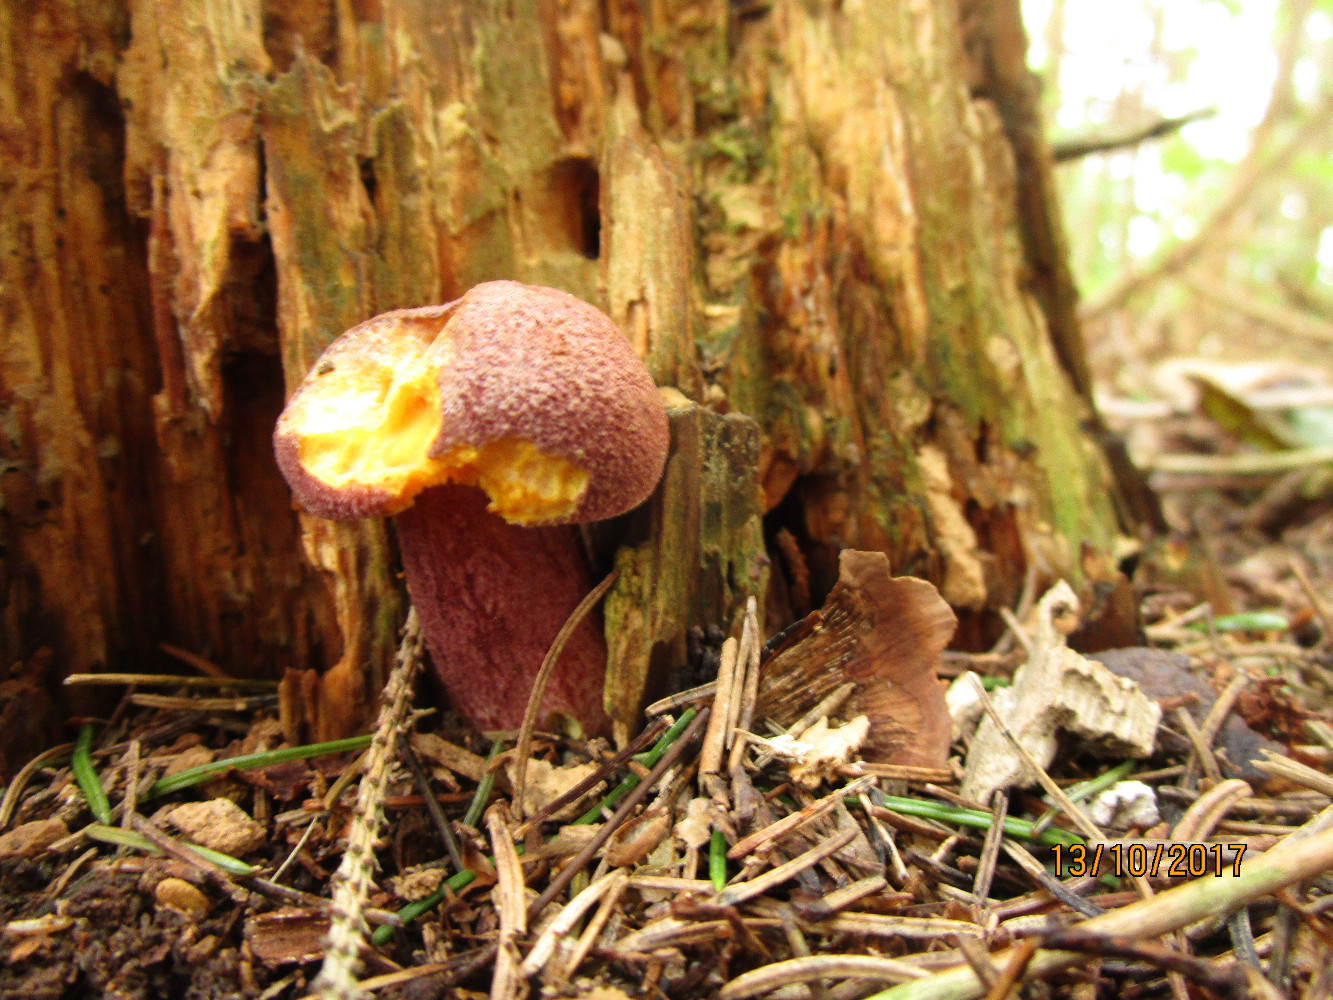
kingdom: Fungi
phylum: Basidiomycota
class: Agaricomycetes
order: Agaricales
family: Tricholomataceae
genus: Tricholomopsis
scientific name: Tricholomopsis rutilans
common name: purpur-væbnerhat
